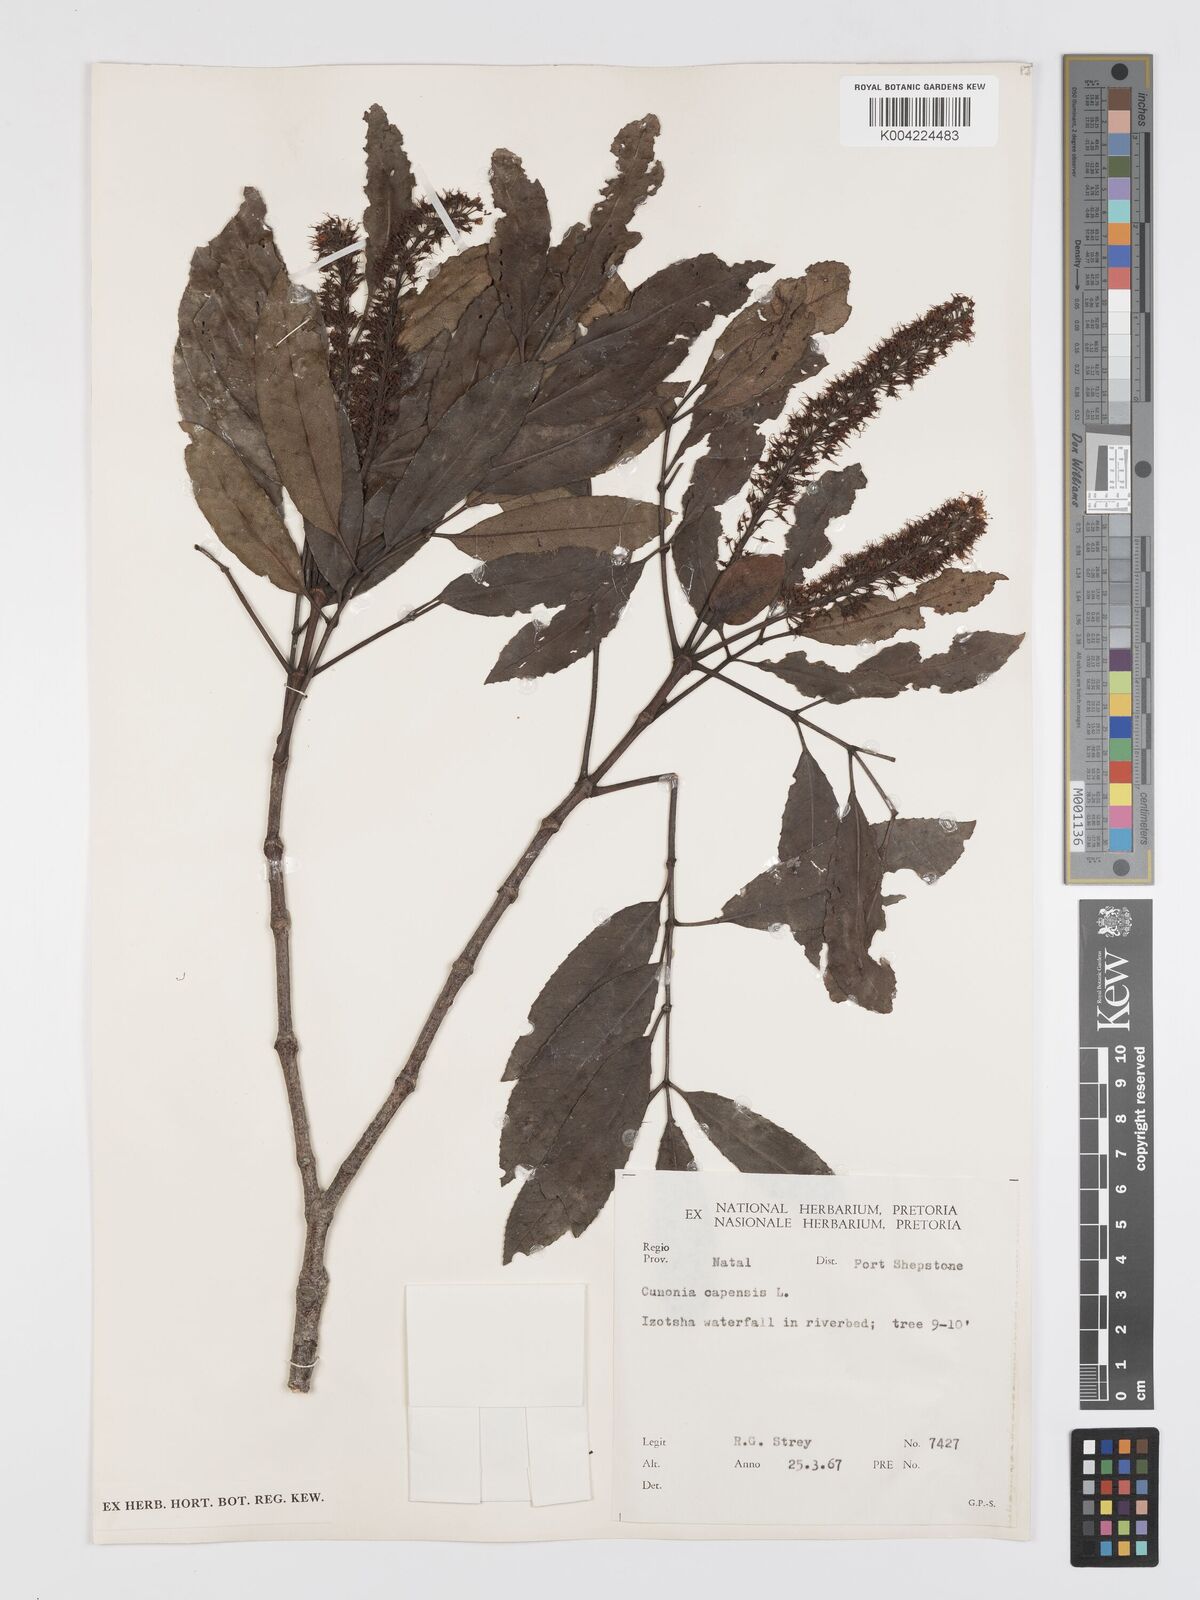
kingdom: Plantae
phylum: Tracheophyta
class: Magnoliopsida
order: Oxalidales
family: Cunoniaceae
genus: Cunonia
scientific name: Cunonia capensis
